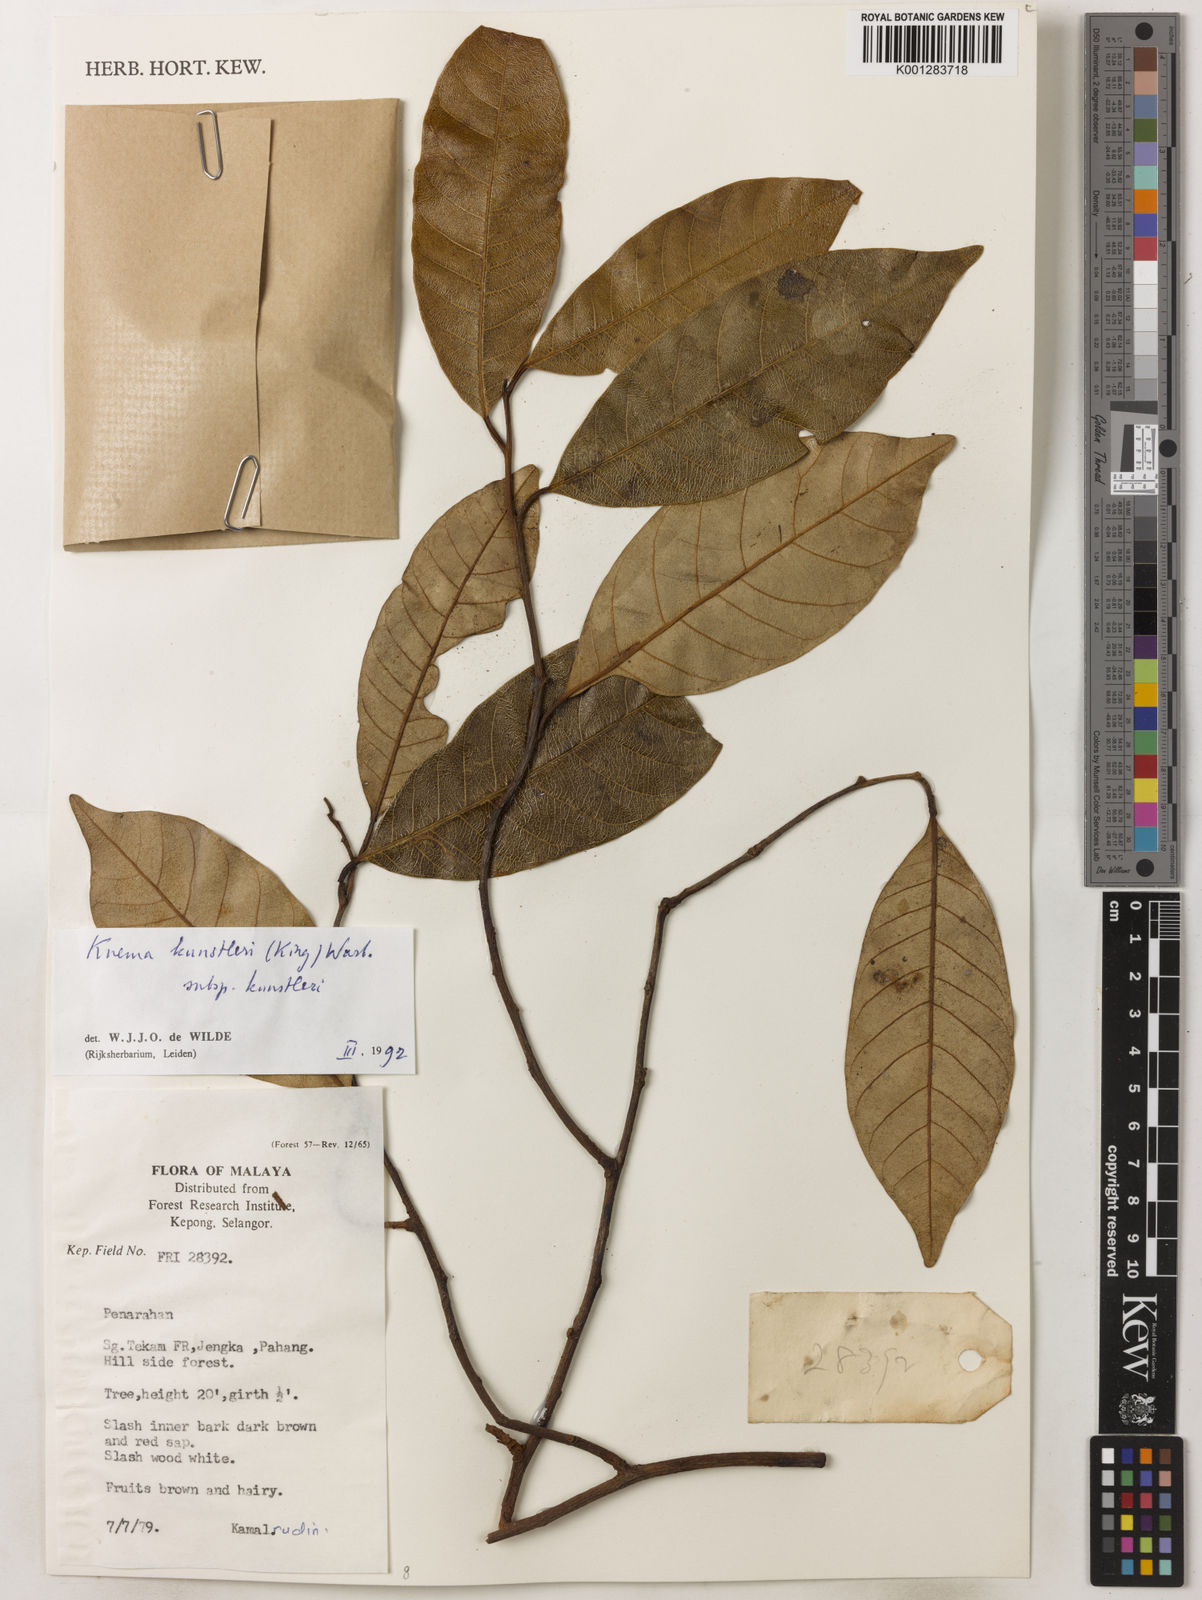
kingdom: Plantae
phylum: Tracheophyta
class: Magnoliopsida
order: Magnoliales
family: Myristicaceae
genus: Knema
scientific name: Knema kunstleri
